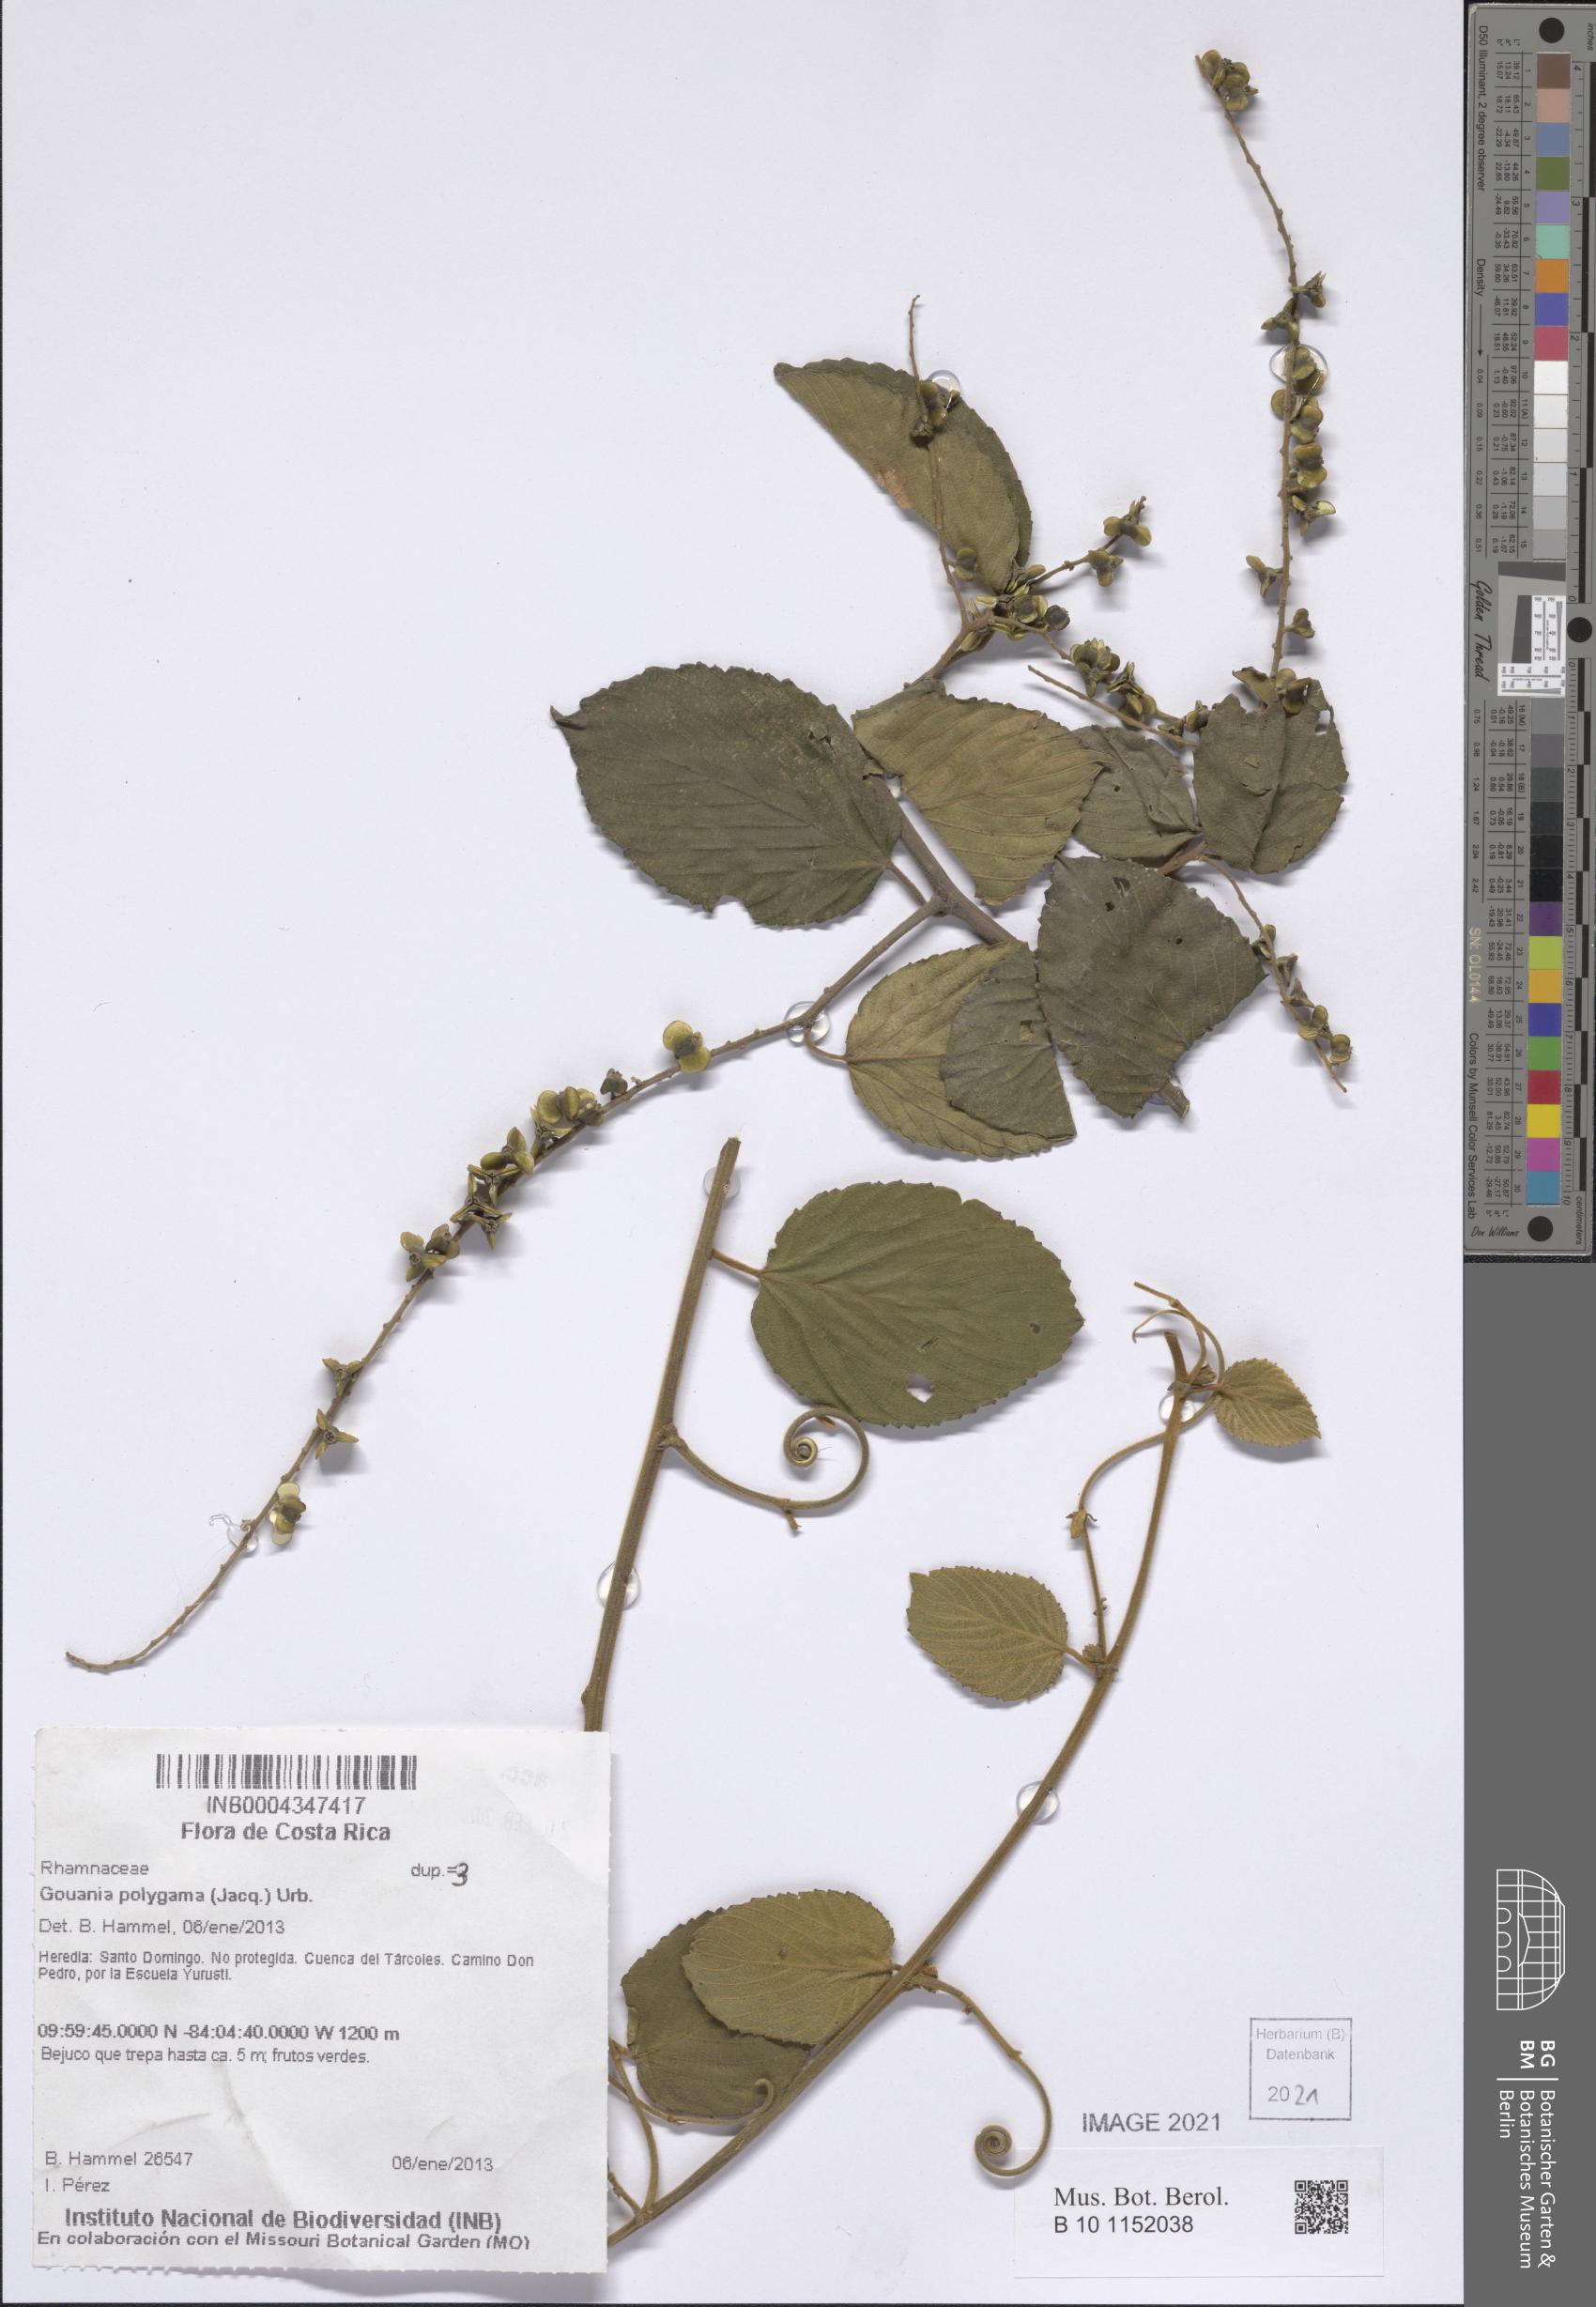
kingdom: Plantae
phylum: Tracheophyta
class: Magnoliopsida
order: Rosales
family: Rhamnaceae
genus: Gouania
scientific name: Gouania polygama
